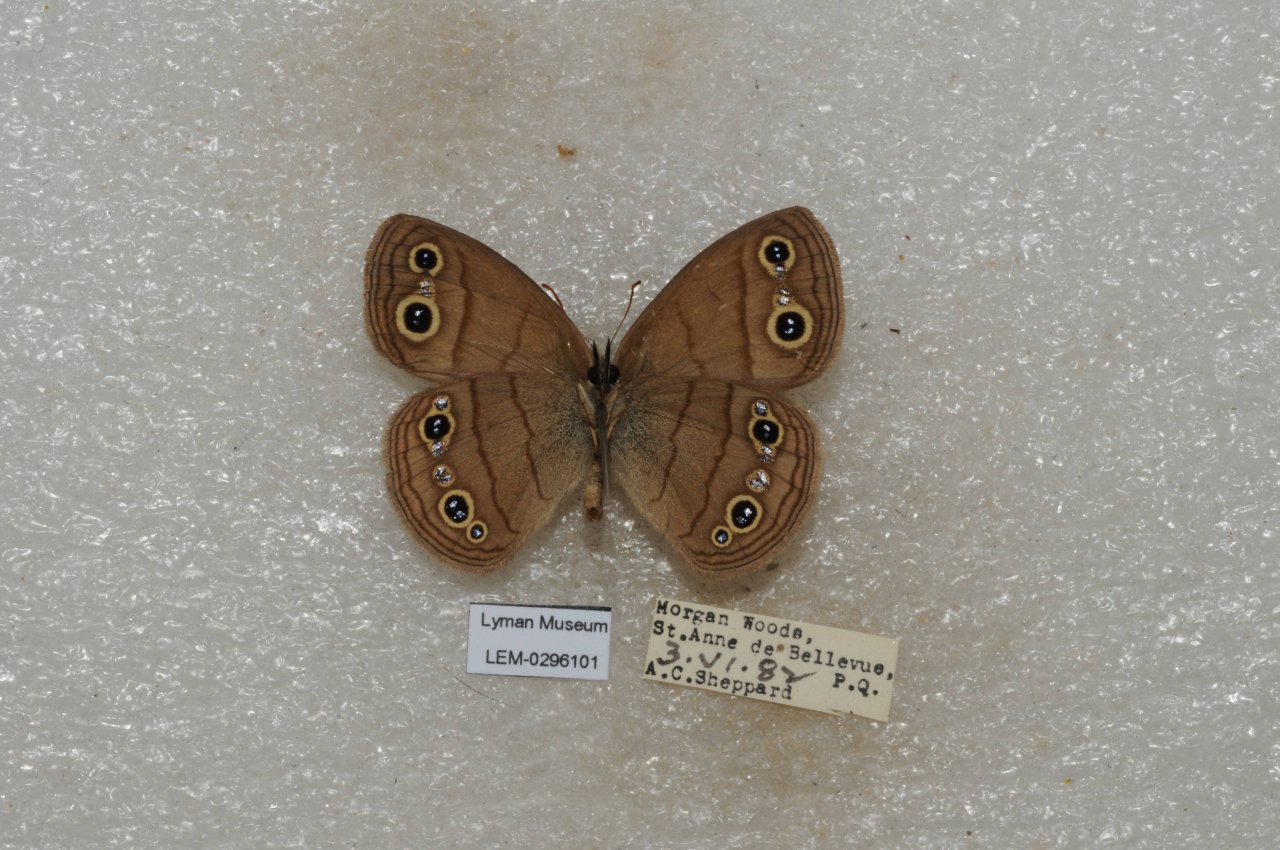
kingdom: Animalia
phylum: Arthropoda
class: Insecta
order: Lepidoptera
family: Nymphalidae
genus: Euptychia
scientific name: Euptychia cymela
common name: Little Wood Satyr
